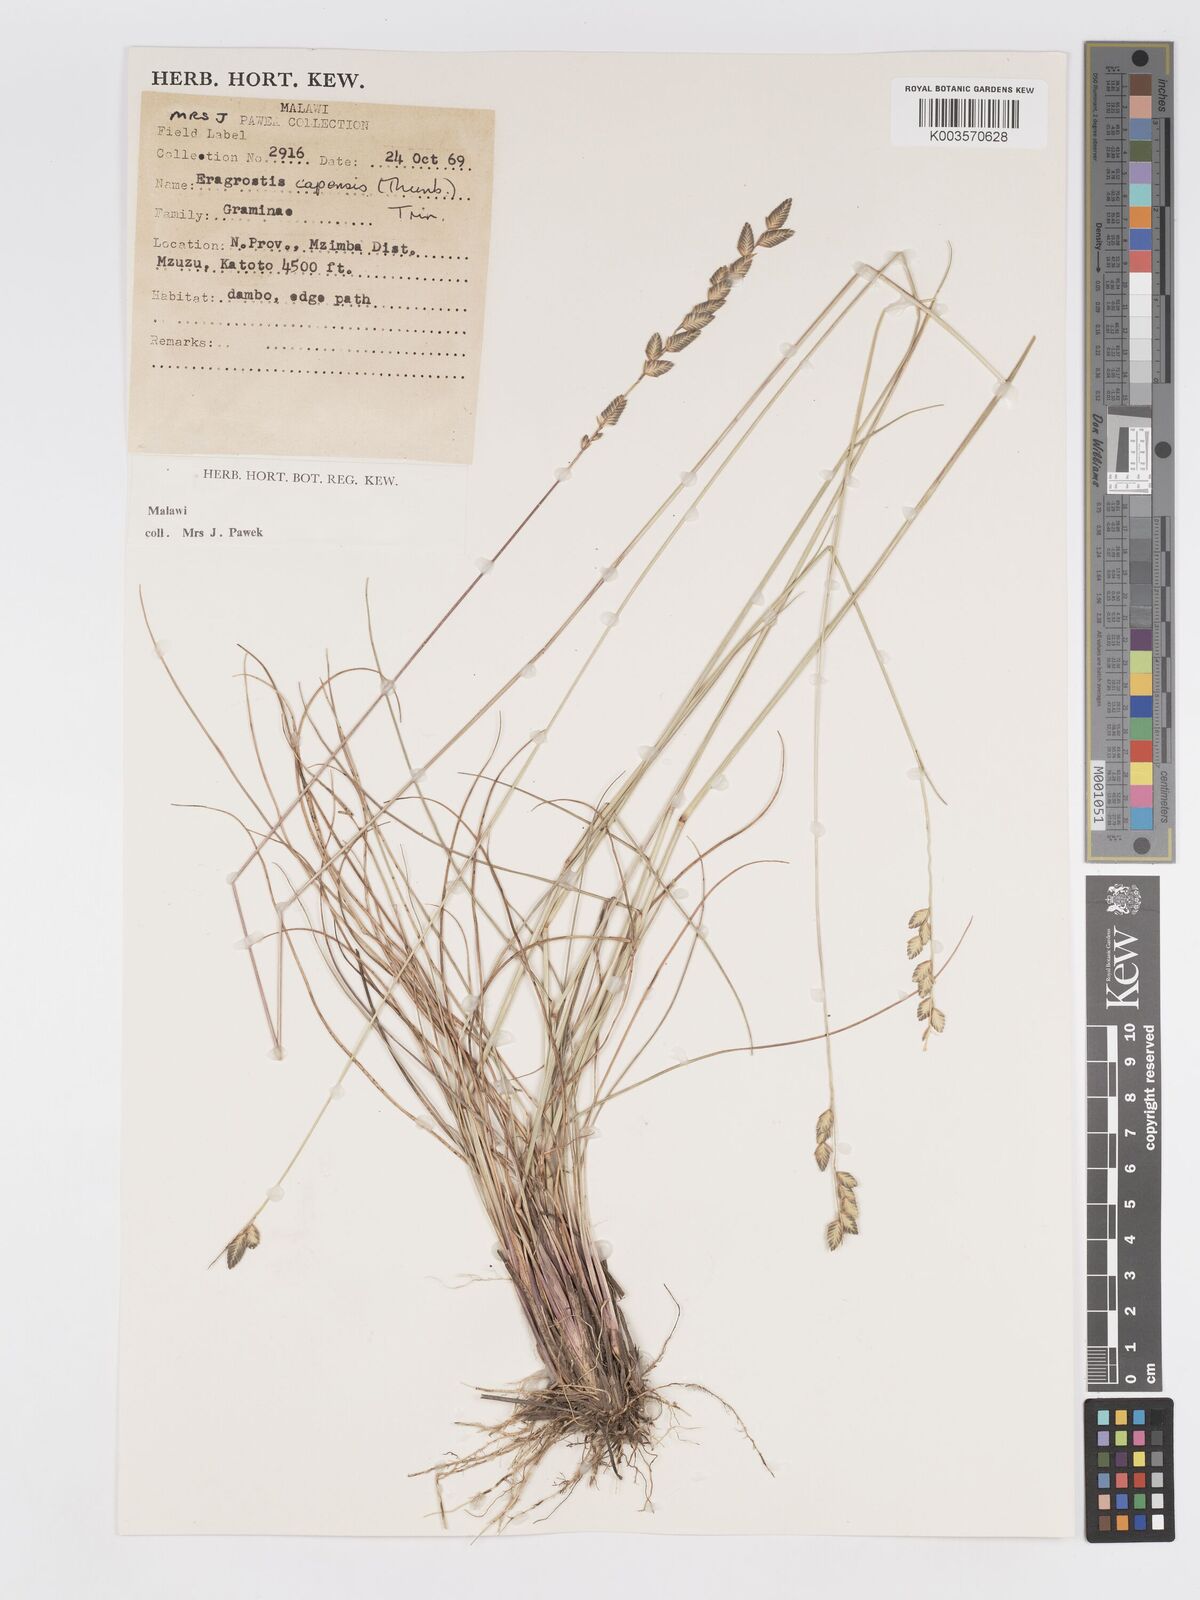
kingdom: Plantae
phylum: Tracheophyta
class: Liliopsida
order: Poales
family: Poaceae
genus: Eragrostis
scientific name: Eragrostis capensis
